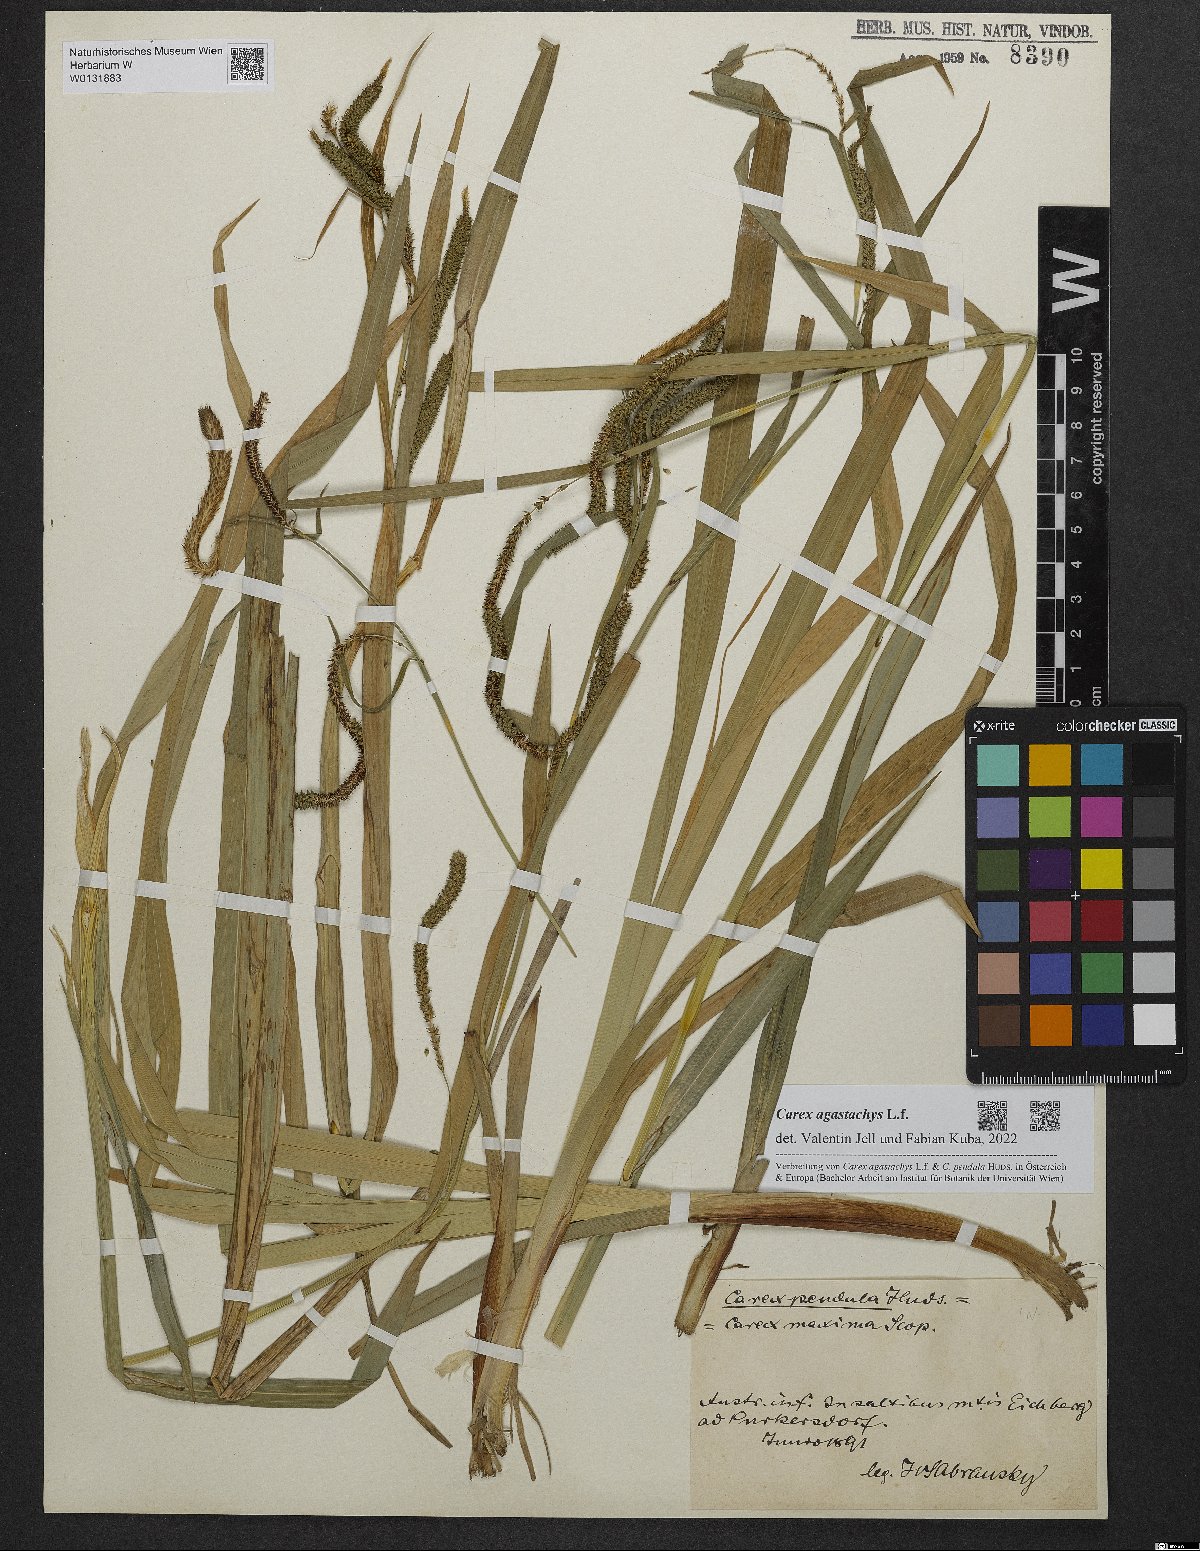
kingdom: Plantae
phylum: Tracheophyta
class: Liliopsida
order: Poales
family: Cyperaceae
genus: Carex
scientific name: Carex agastachys
